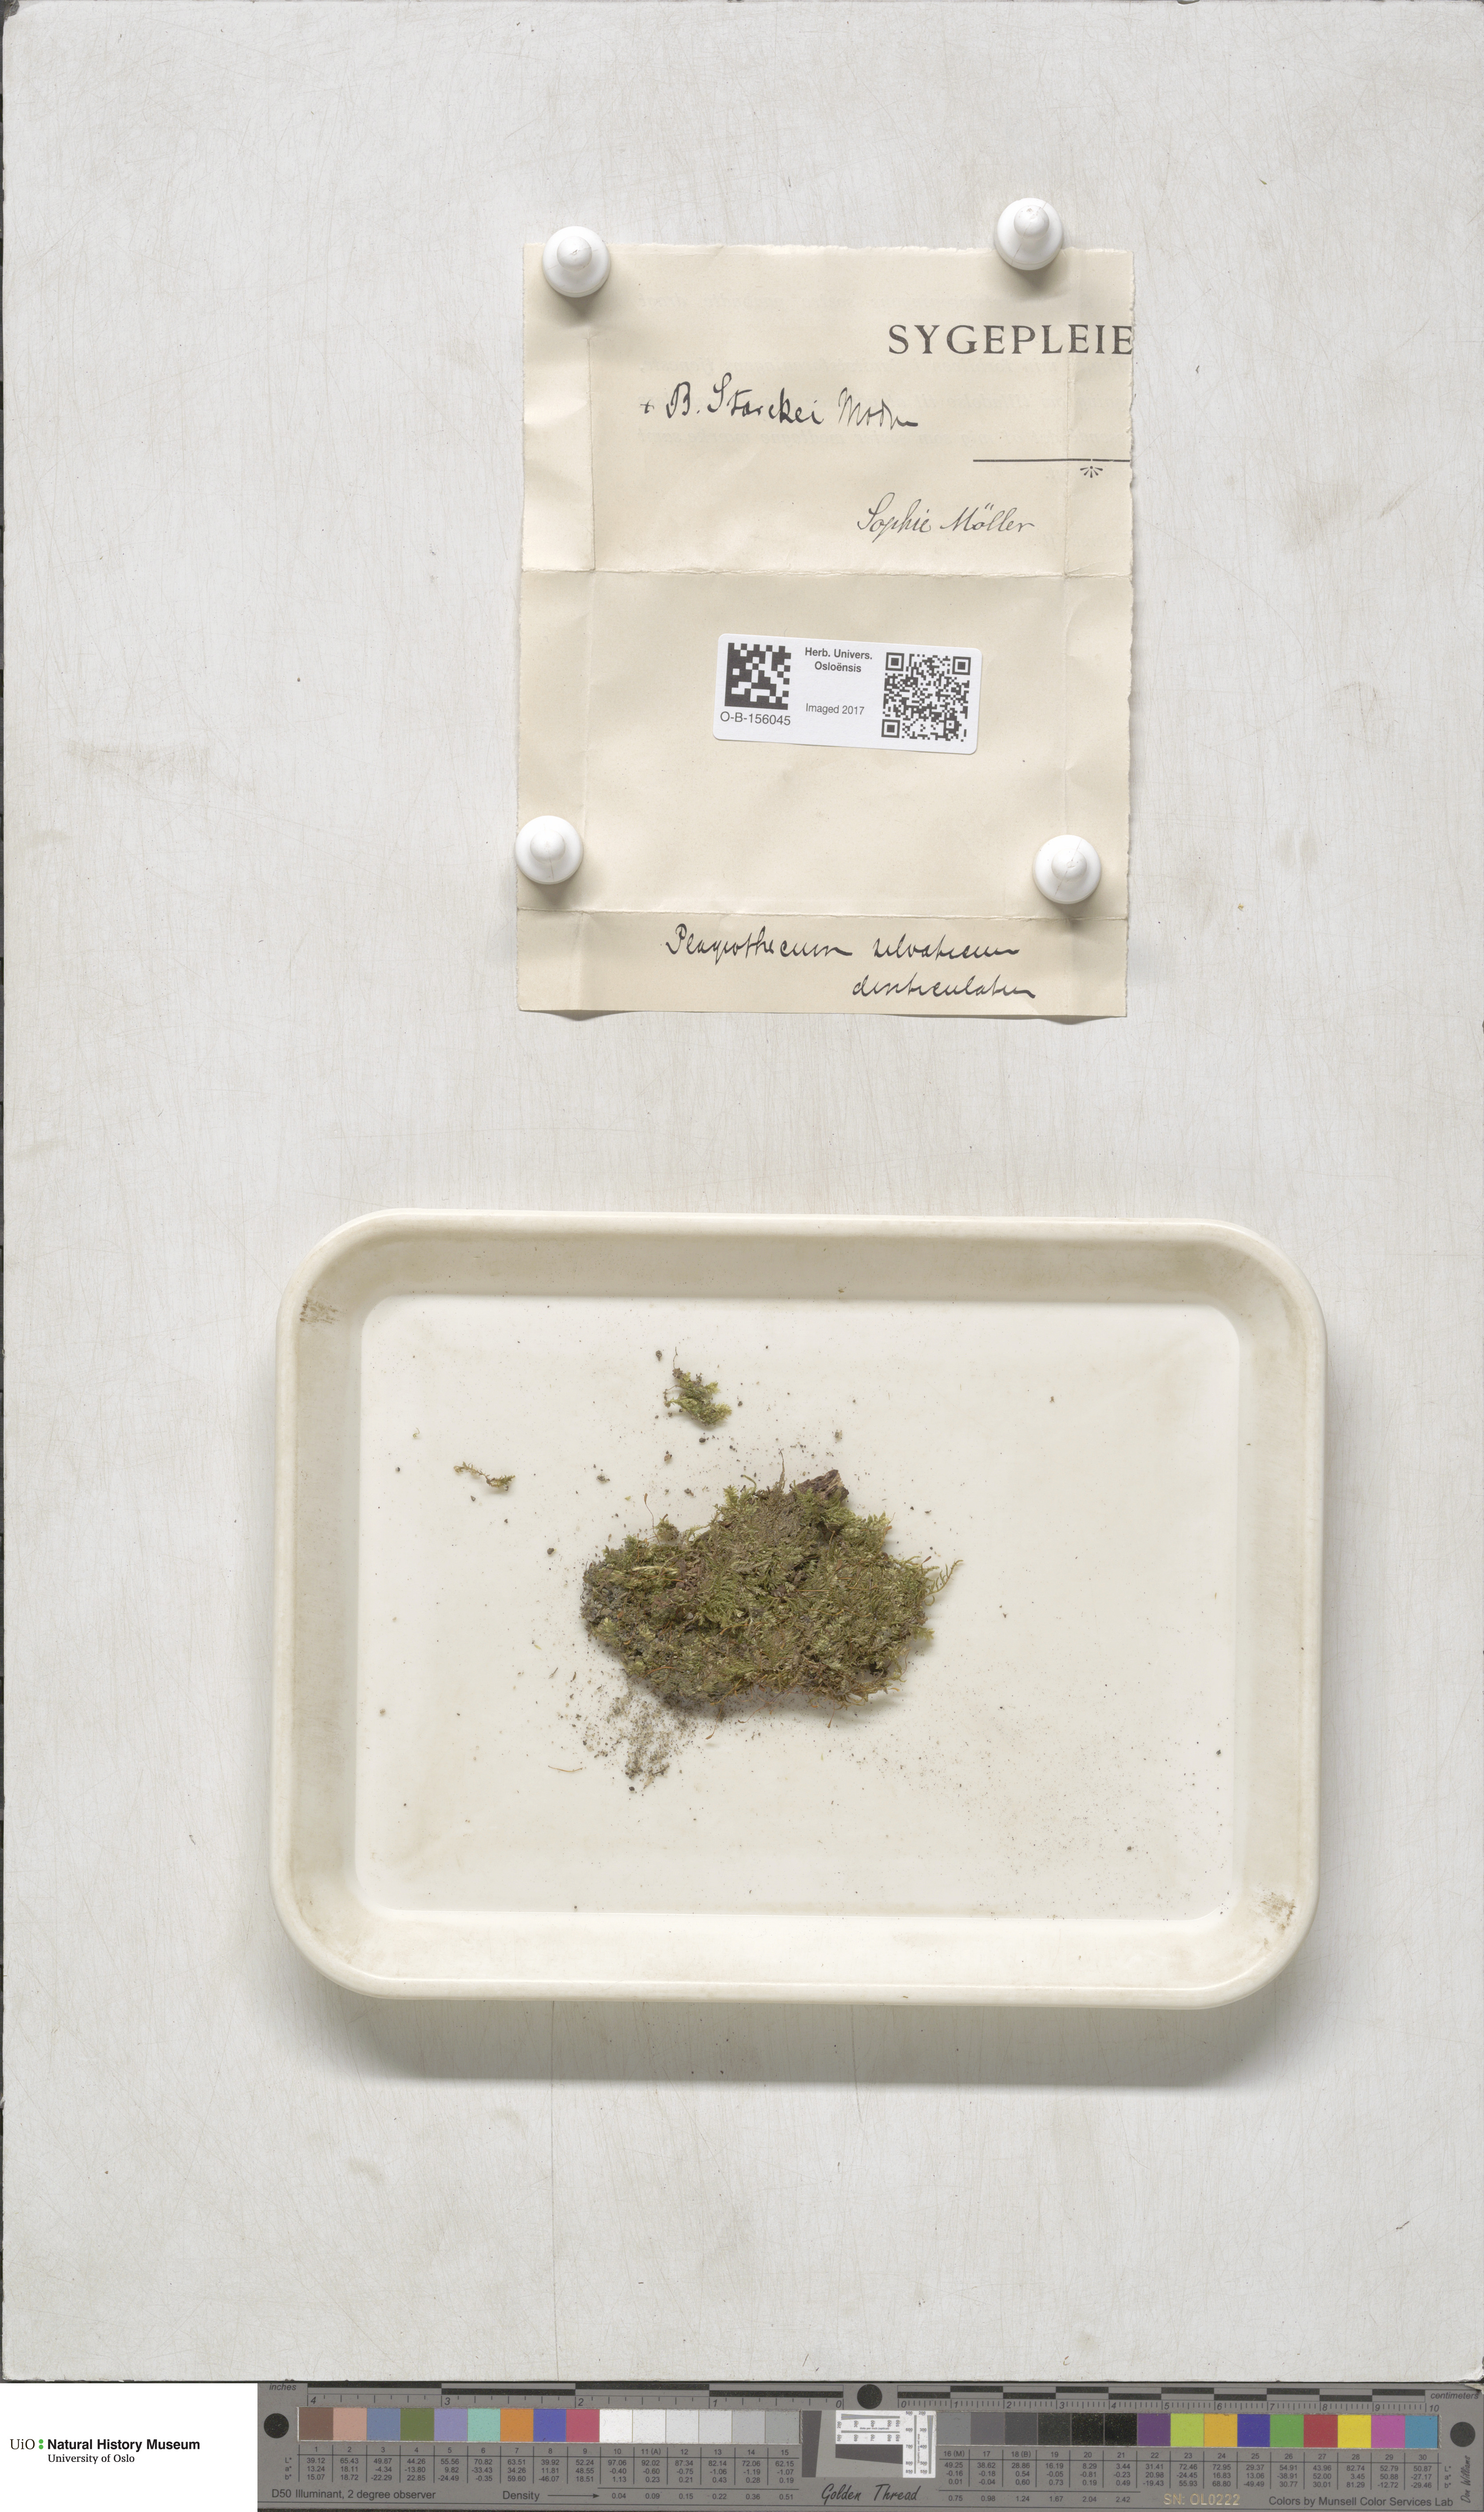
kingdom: Plantae
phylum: Bryophyta
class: Bryopsida
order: Hypnales
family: Plagiotheciaceae
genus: Plagiothecium
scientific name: Plagiothecium nemorale
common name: Woodsy silk-moss
